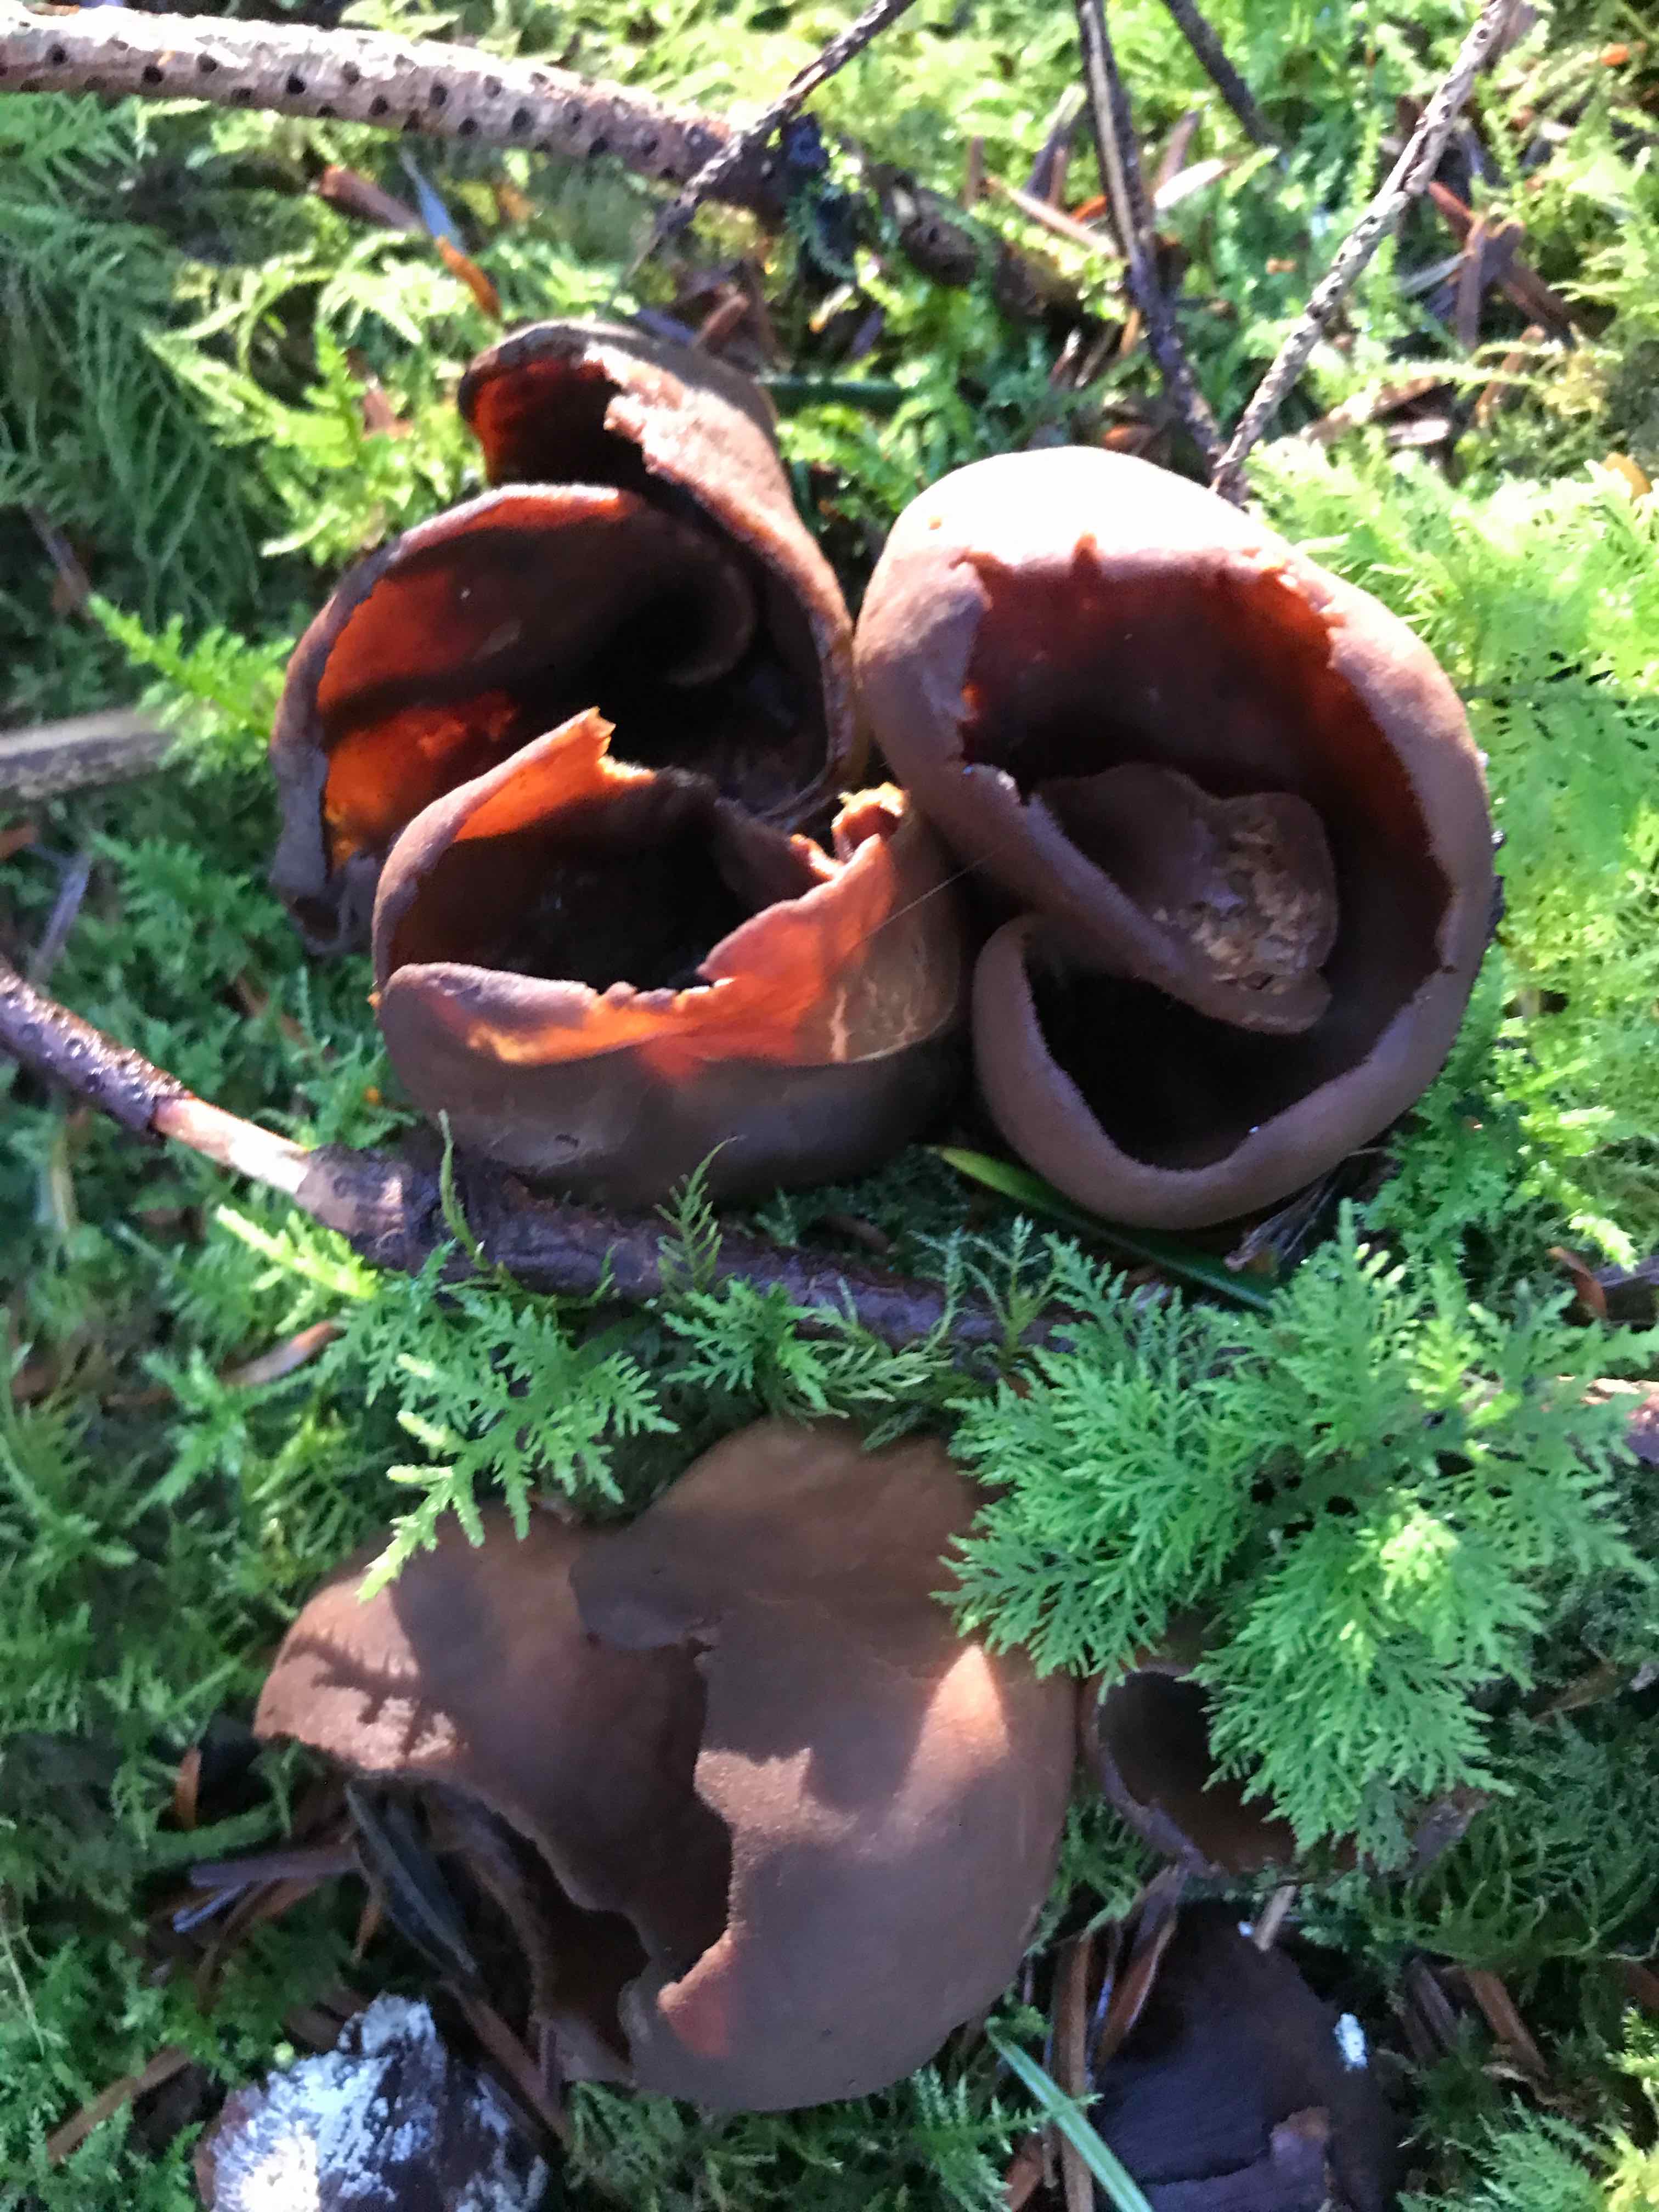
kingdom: Fungi
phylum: Ascomycota
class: Pezizomycetes
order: Pezizales
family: Otideaceae
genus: Otidea
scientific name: Otidea bufonia
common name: brun ørebæger
